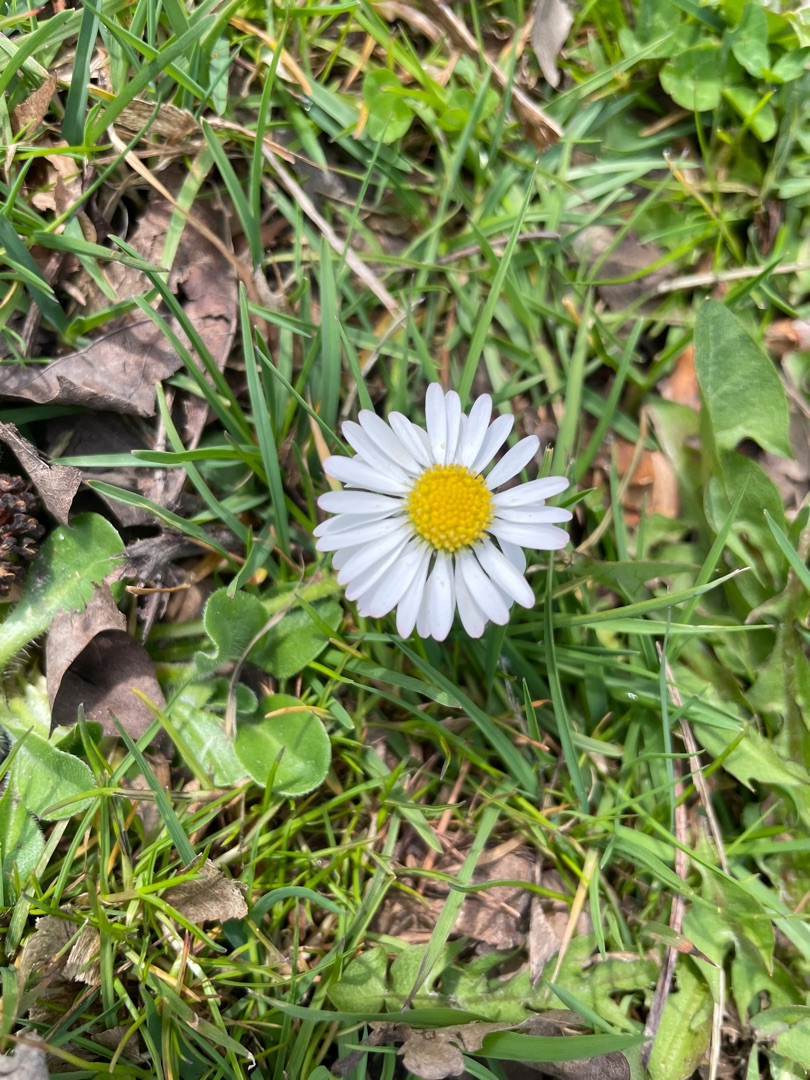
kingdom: Plantae
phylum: Tracheophyta
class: Magnoliopsida
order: Asterales
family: Asteraceae
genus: Bellis
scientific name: Bellis perennis
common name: Tusindfryd
